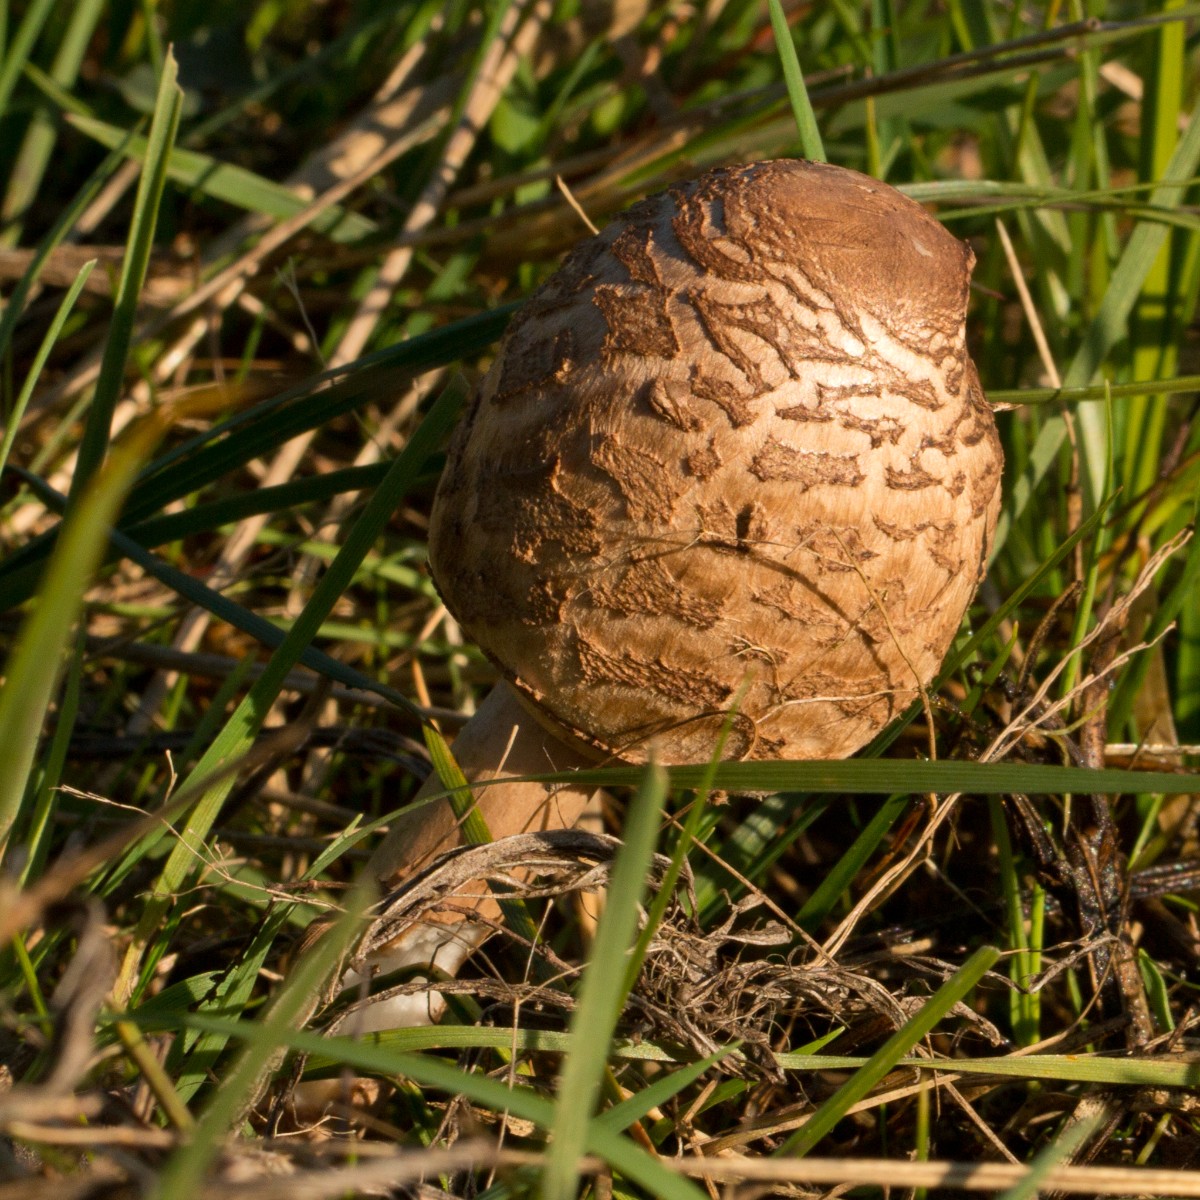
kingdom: Fungi
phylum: Basidiomycota
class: Agaricomycetes
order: Agaricales
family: Agaricaceae
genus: Macrolepiota
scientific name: Macrolepiota procera
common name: stor kæmpeparasolhat
